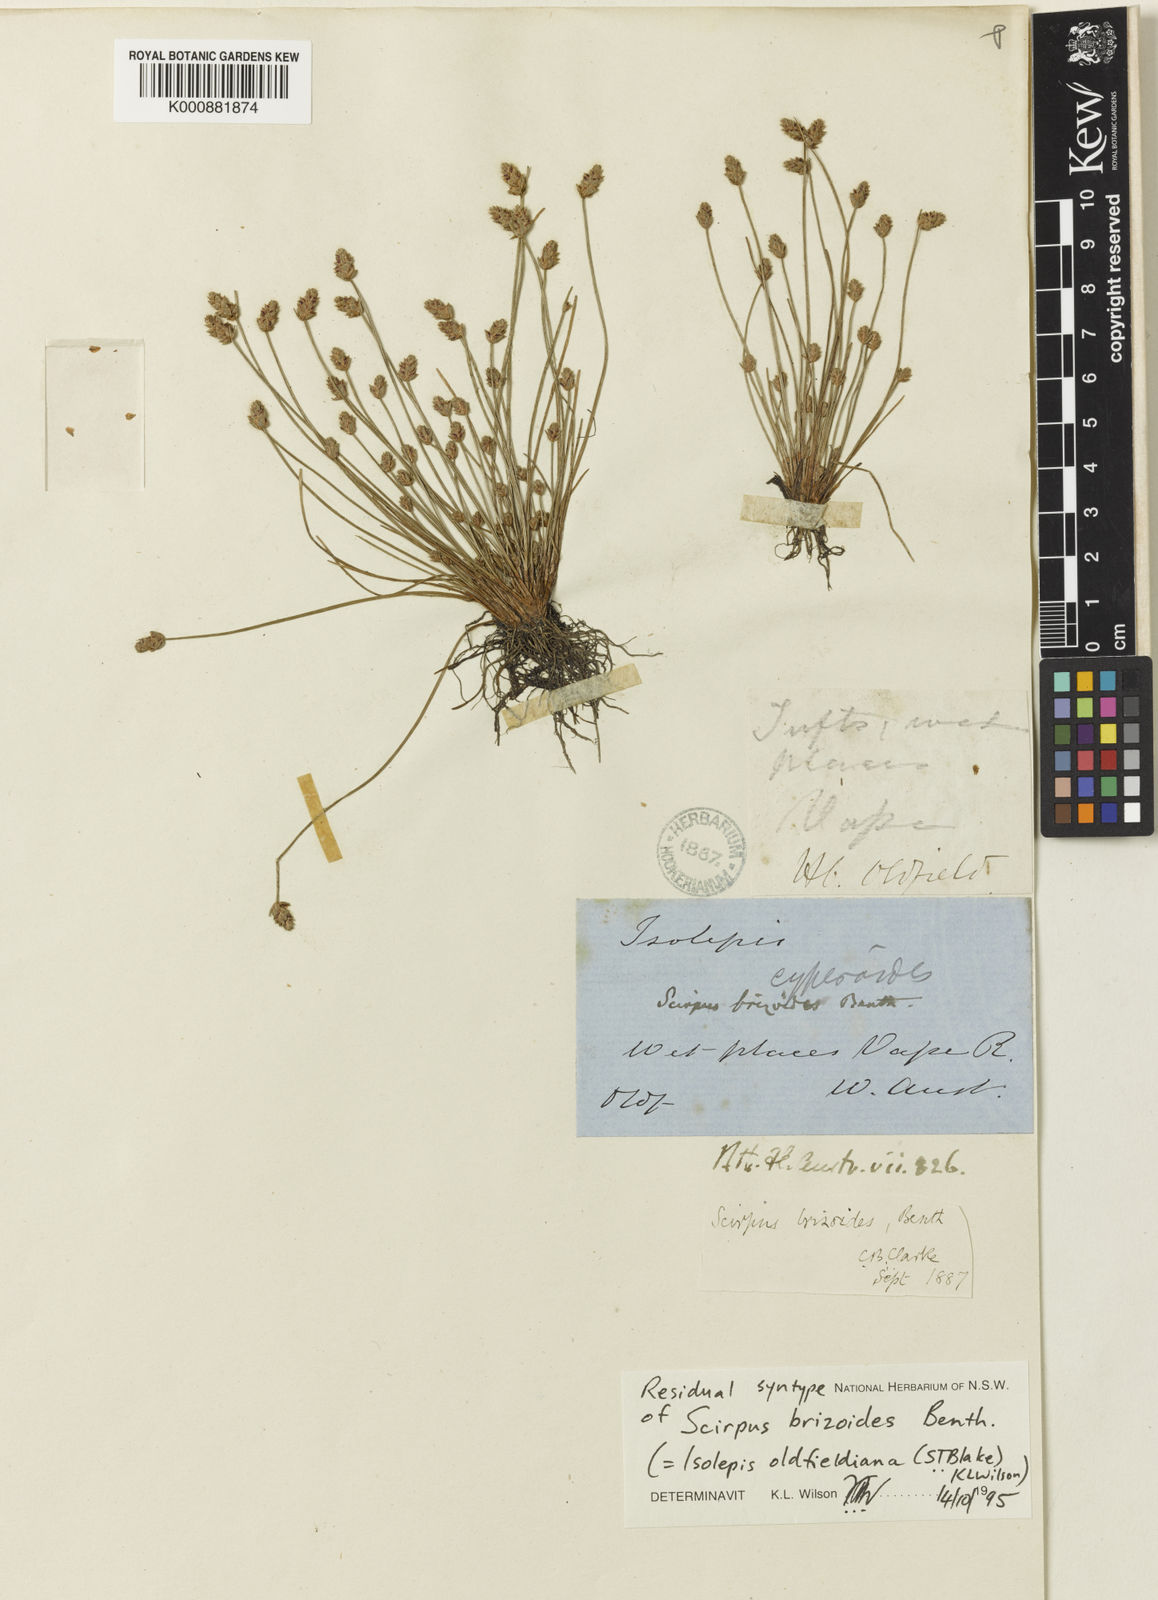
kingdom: Plantae
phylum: Tracheophyta
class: Liliopsida
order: Poales
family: Cyperaceae
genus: Isolepis
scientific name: Isolepis oldfieldiana
